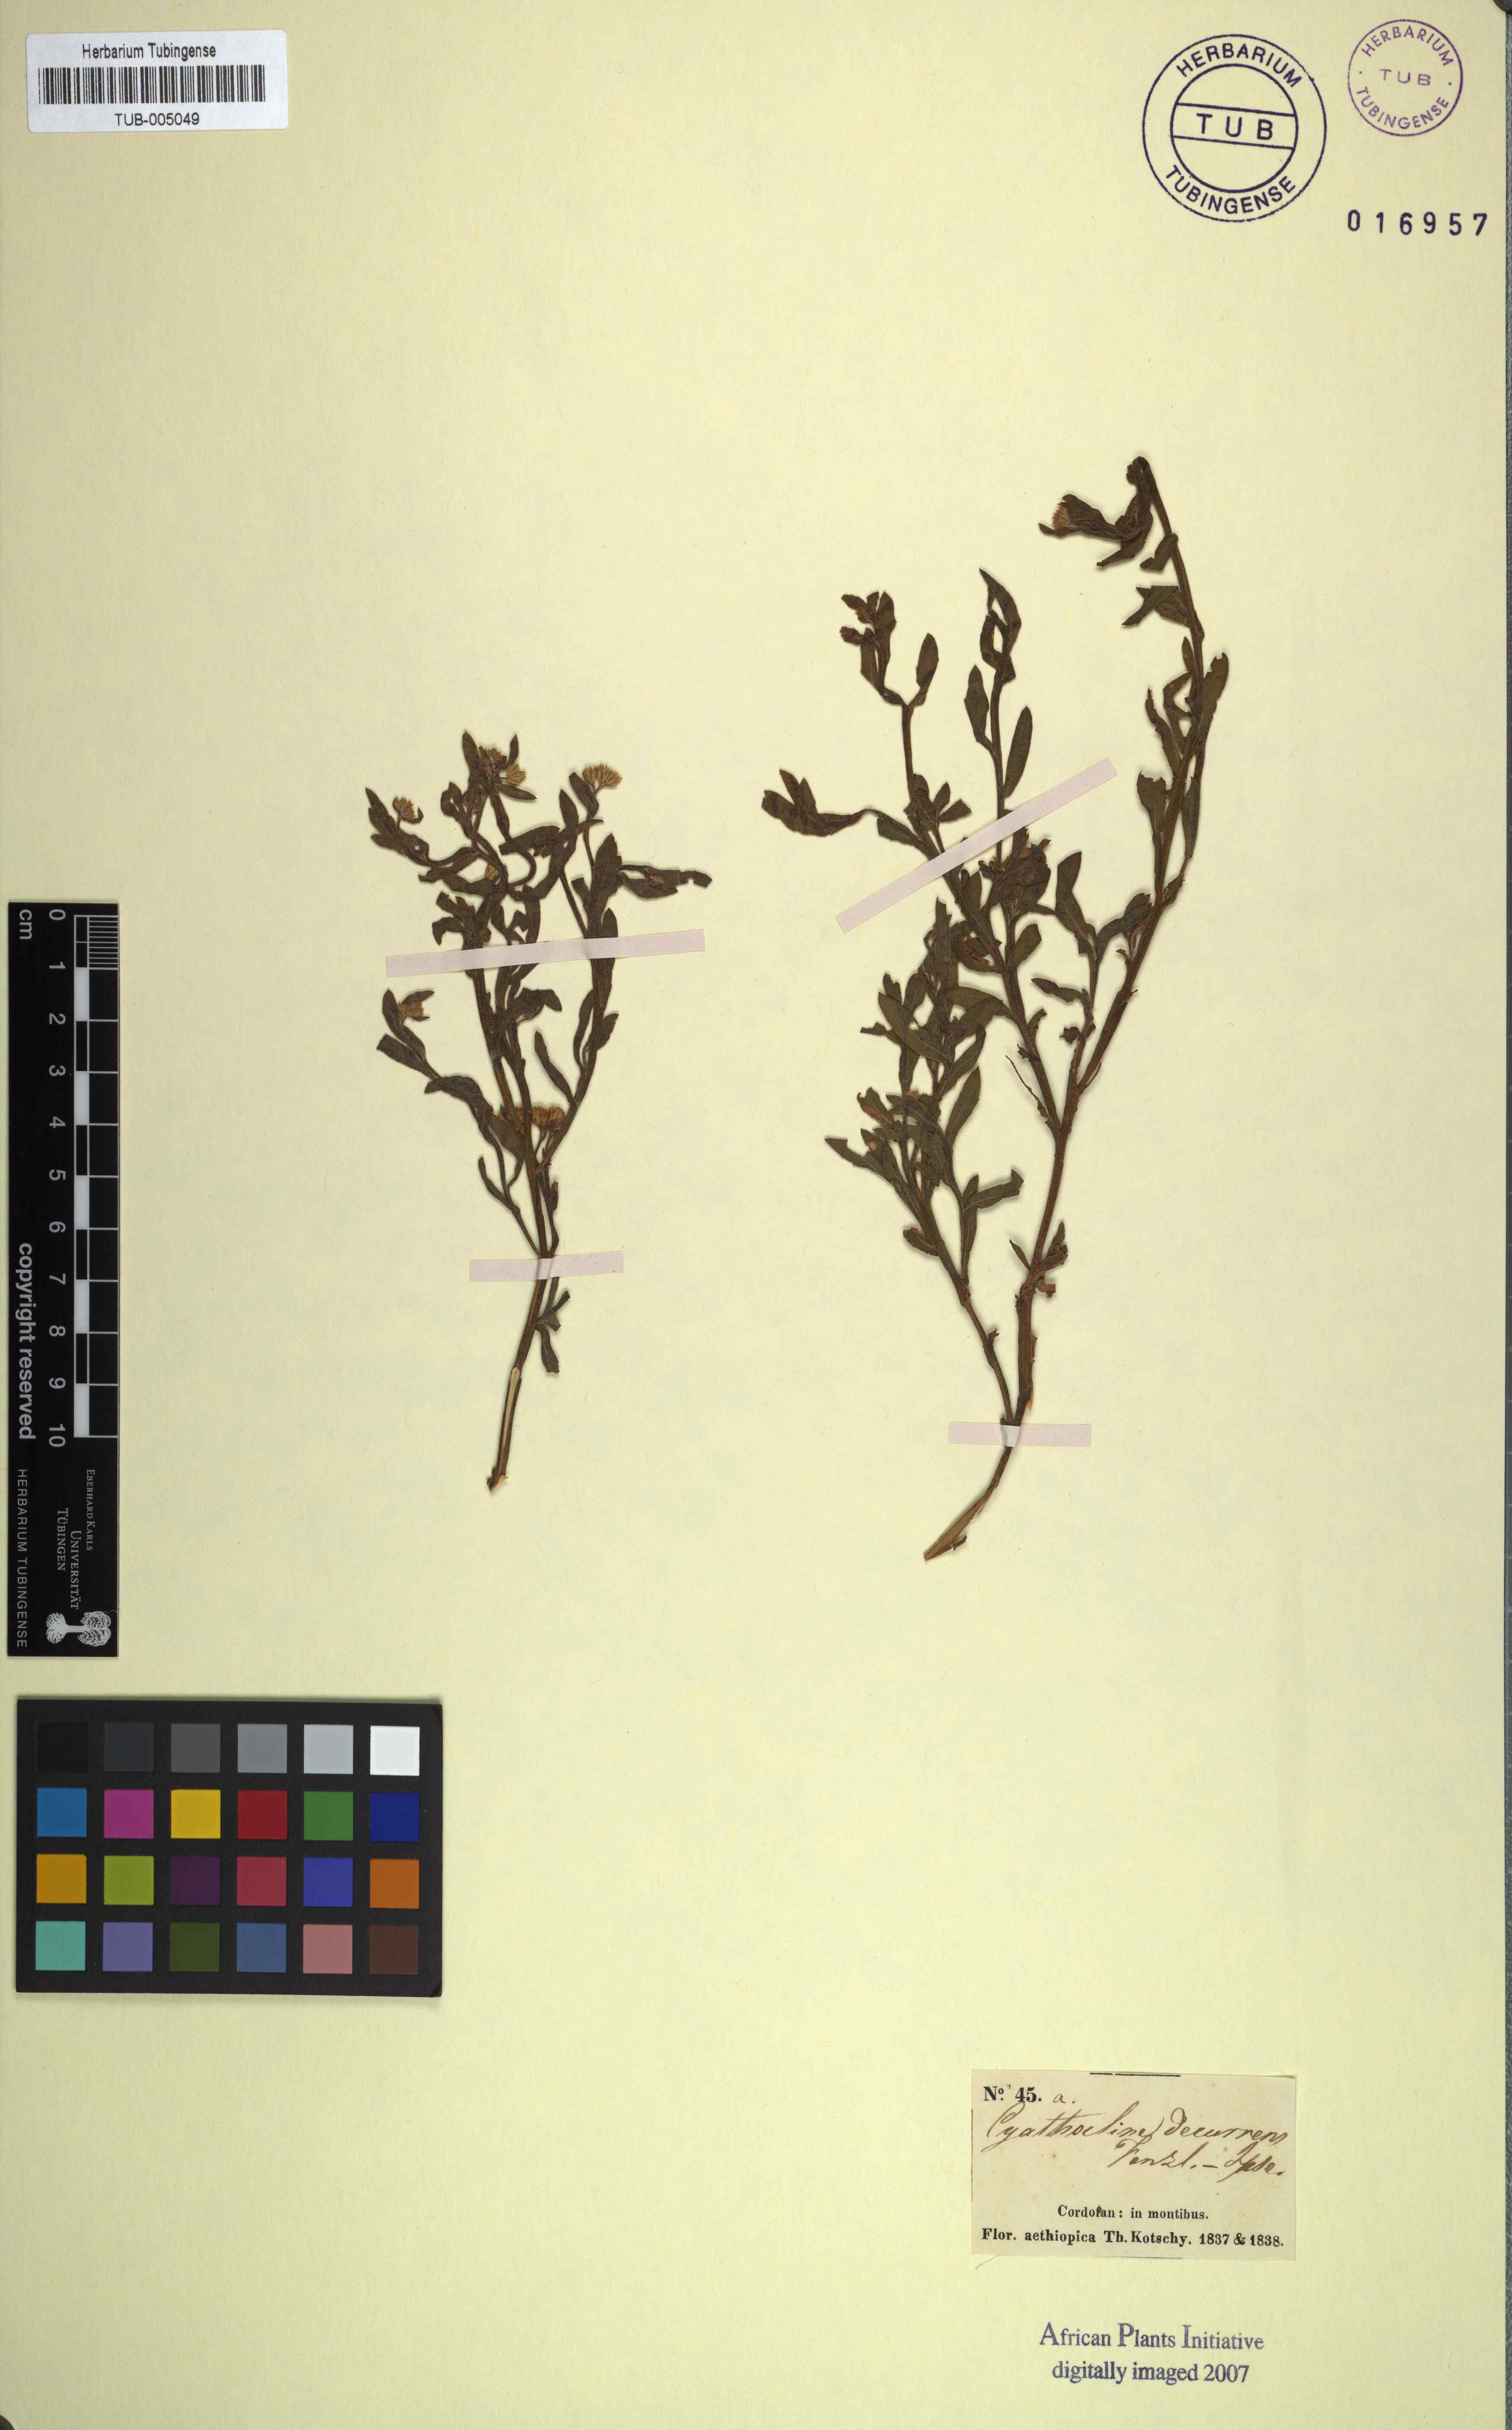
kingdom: Plantae
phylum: Tracheophyta
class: Magnoliopsida
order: Asterales
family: Asteraceae
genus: Cyathocline
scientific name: Cyathocline
